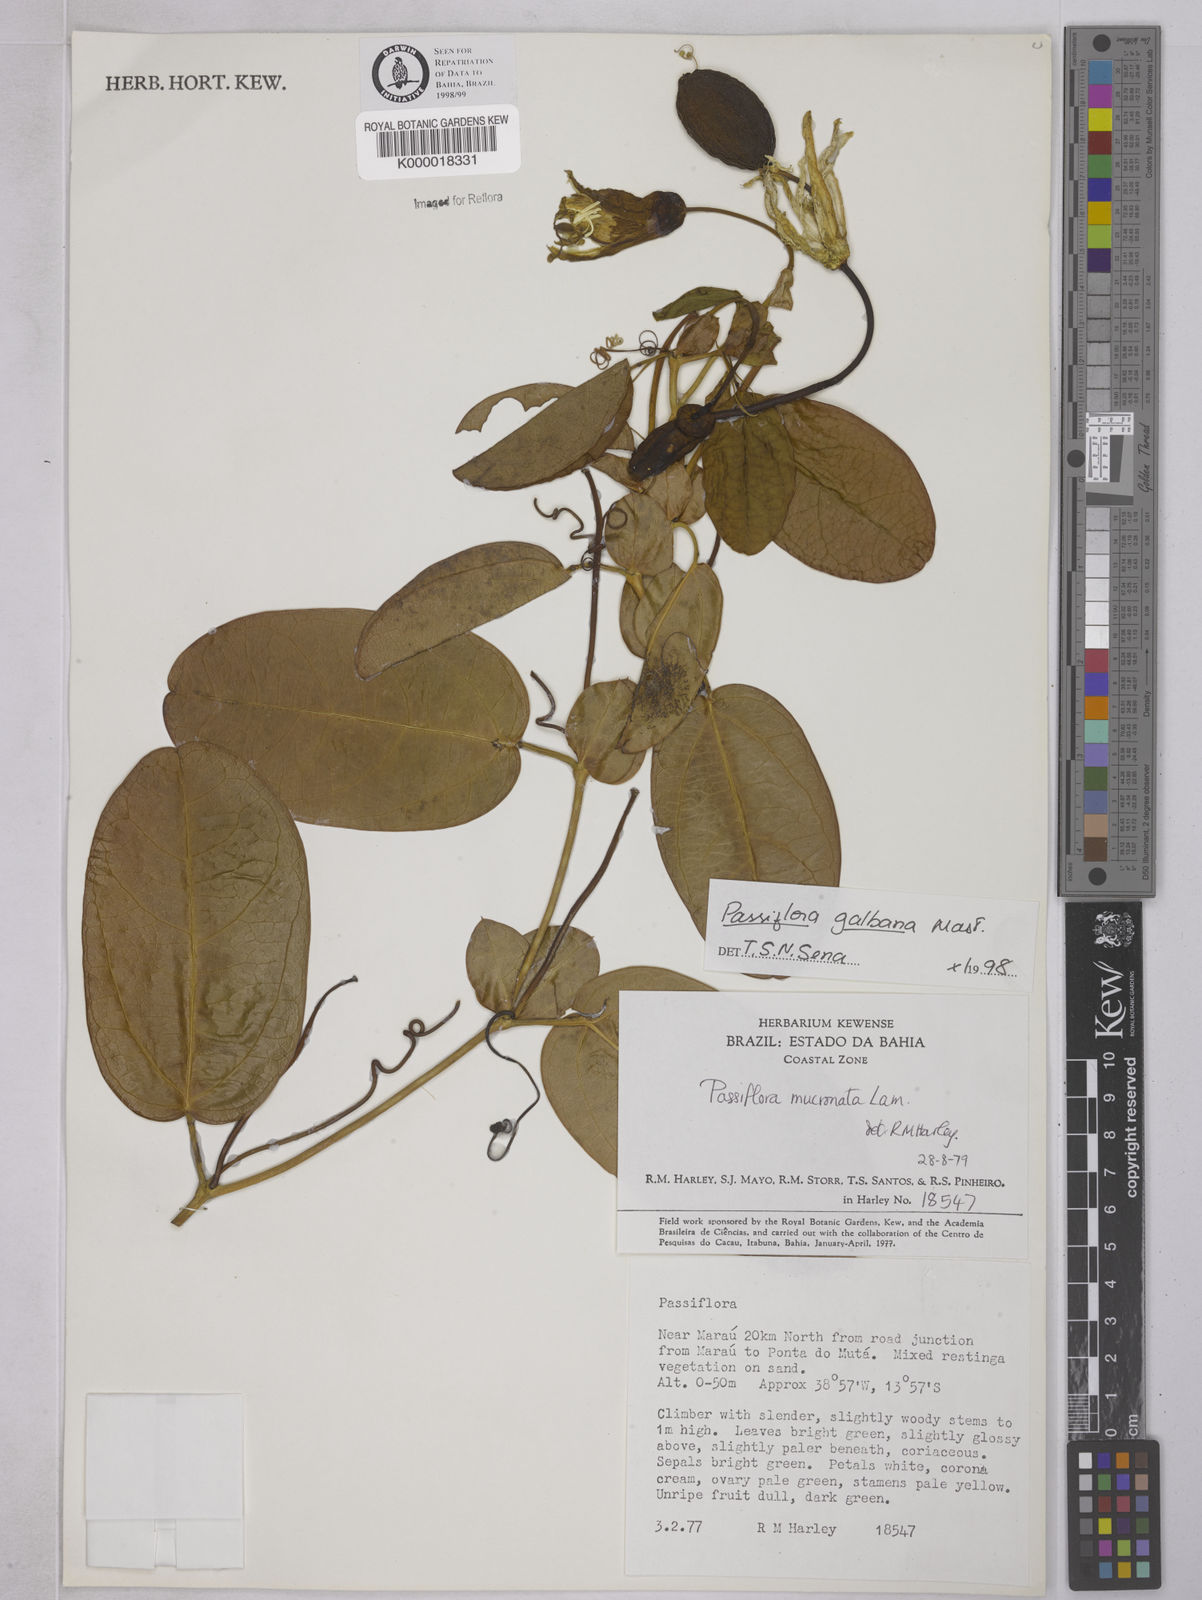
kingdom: Plantae
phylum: Tracheophyta
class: Magnoliopsida
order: Malpighiales
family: Passifloraceae
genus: Passiflora
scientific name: Passiflora silvestris
